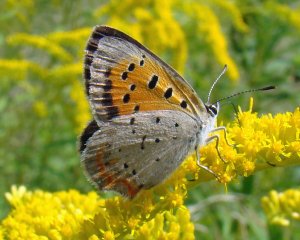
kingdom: Animalia
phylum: Arthropoda
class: Insecta
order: Lepidoptera
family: Lycaenidae
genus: Lycaena
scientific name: Lycaena phlaeas
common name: American Copper
